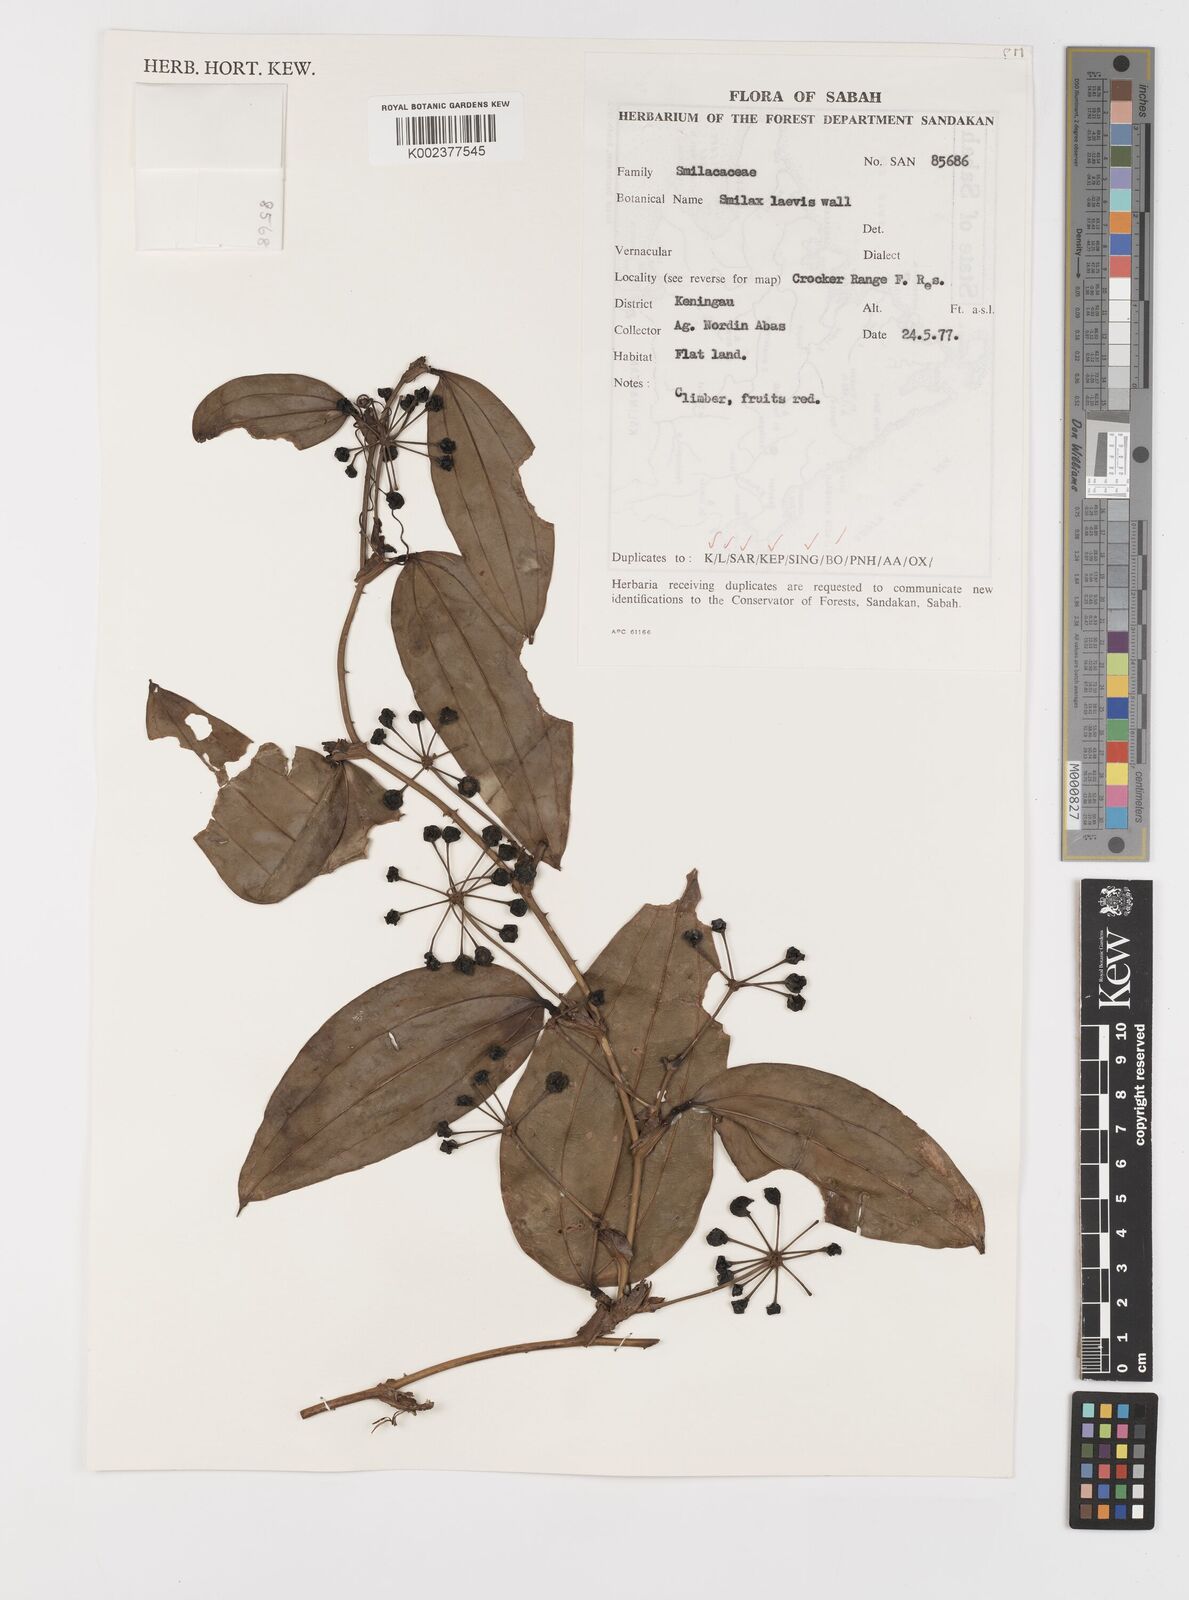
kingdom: Plantae
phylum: Tracheophyta
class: Liliopsida
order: Liliales
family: Smilacaceae
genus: Smilax
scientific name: Smilax laevis
